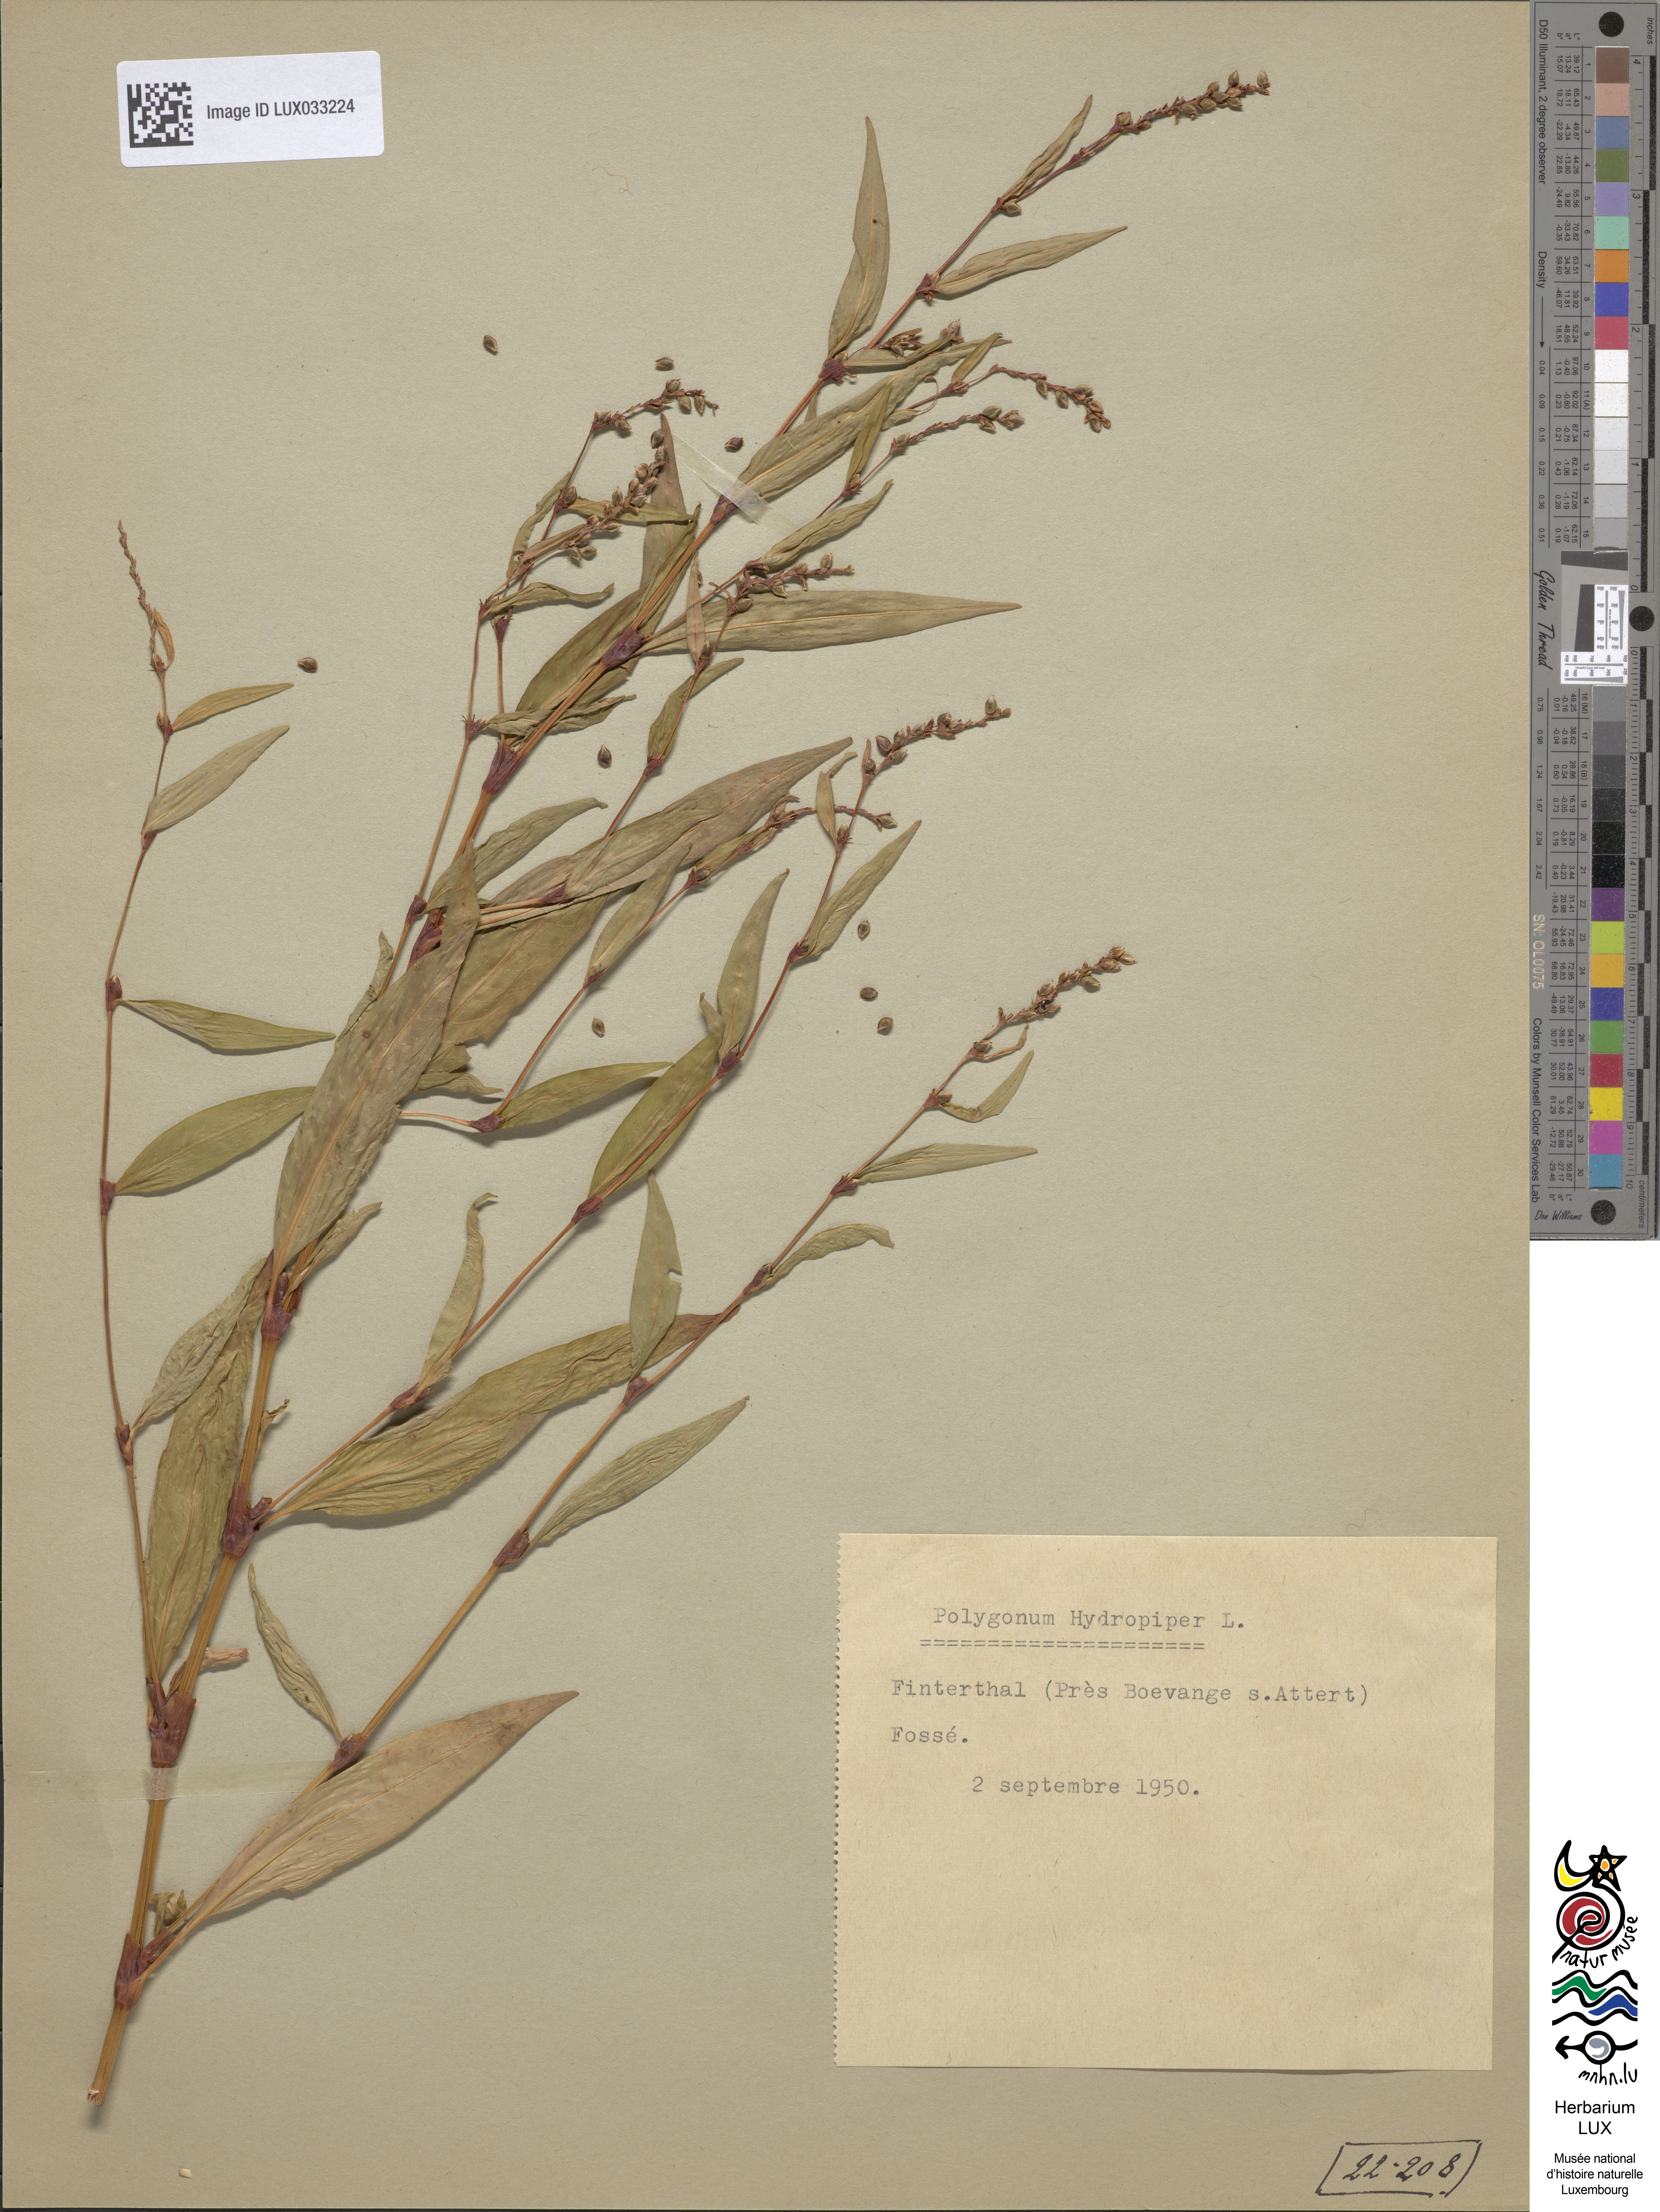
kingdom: Plantae
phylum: Tracheophyta
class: Magnoliopsida
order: Caryophyllales
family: Polygonaceae
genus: Persicaria
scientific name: Persicaria hydropiper
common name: Water-pepper
